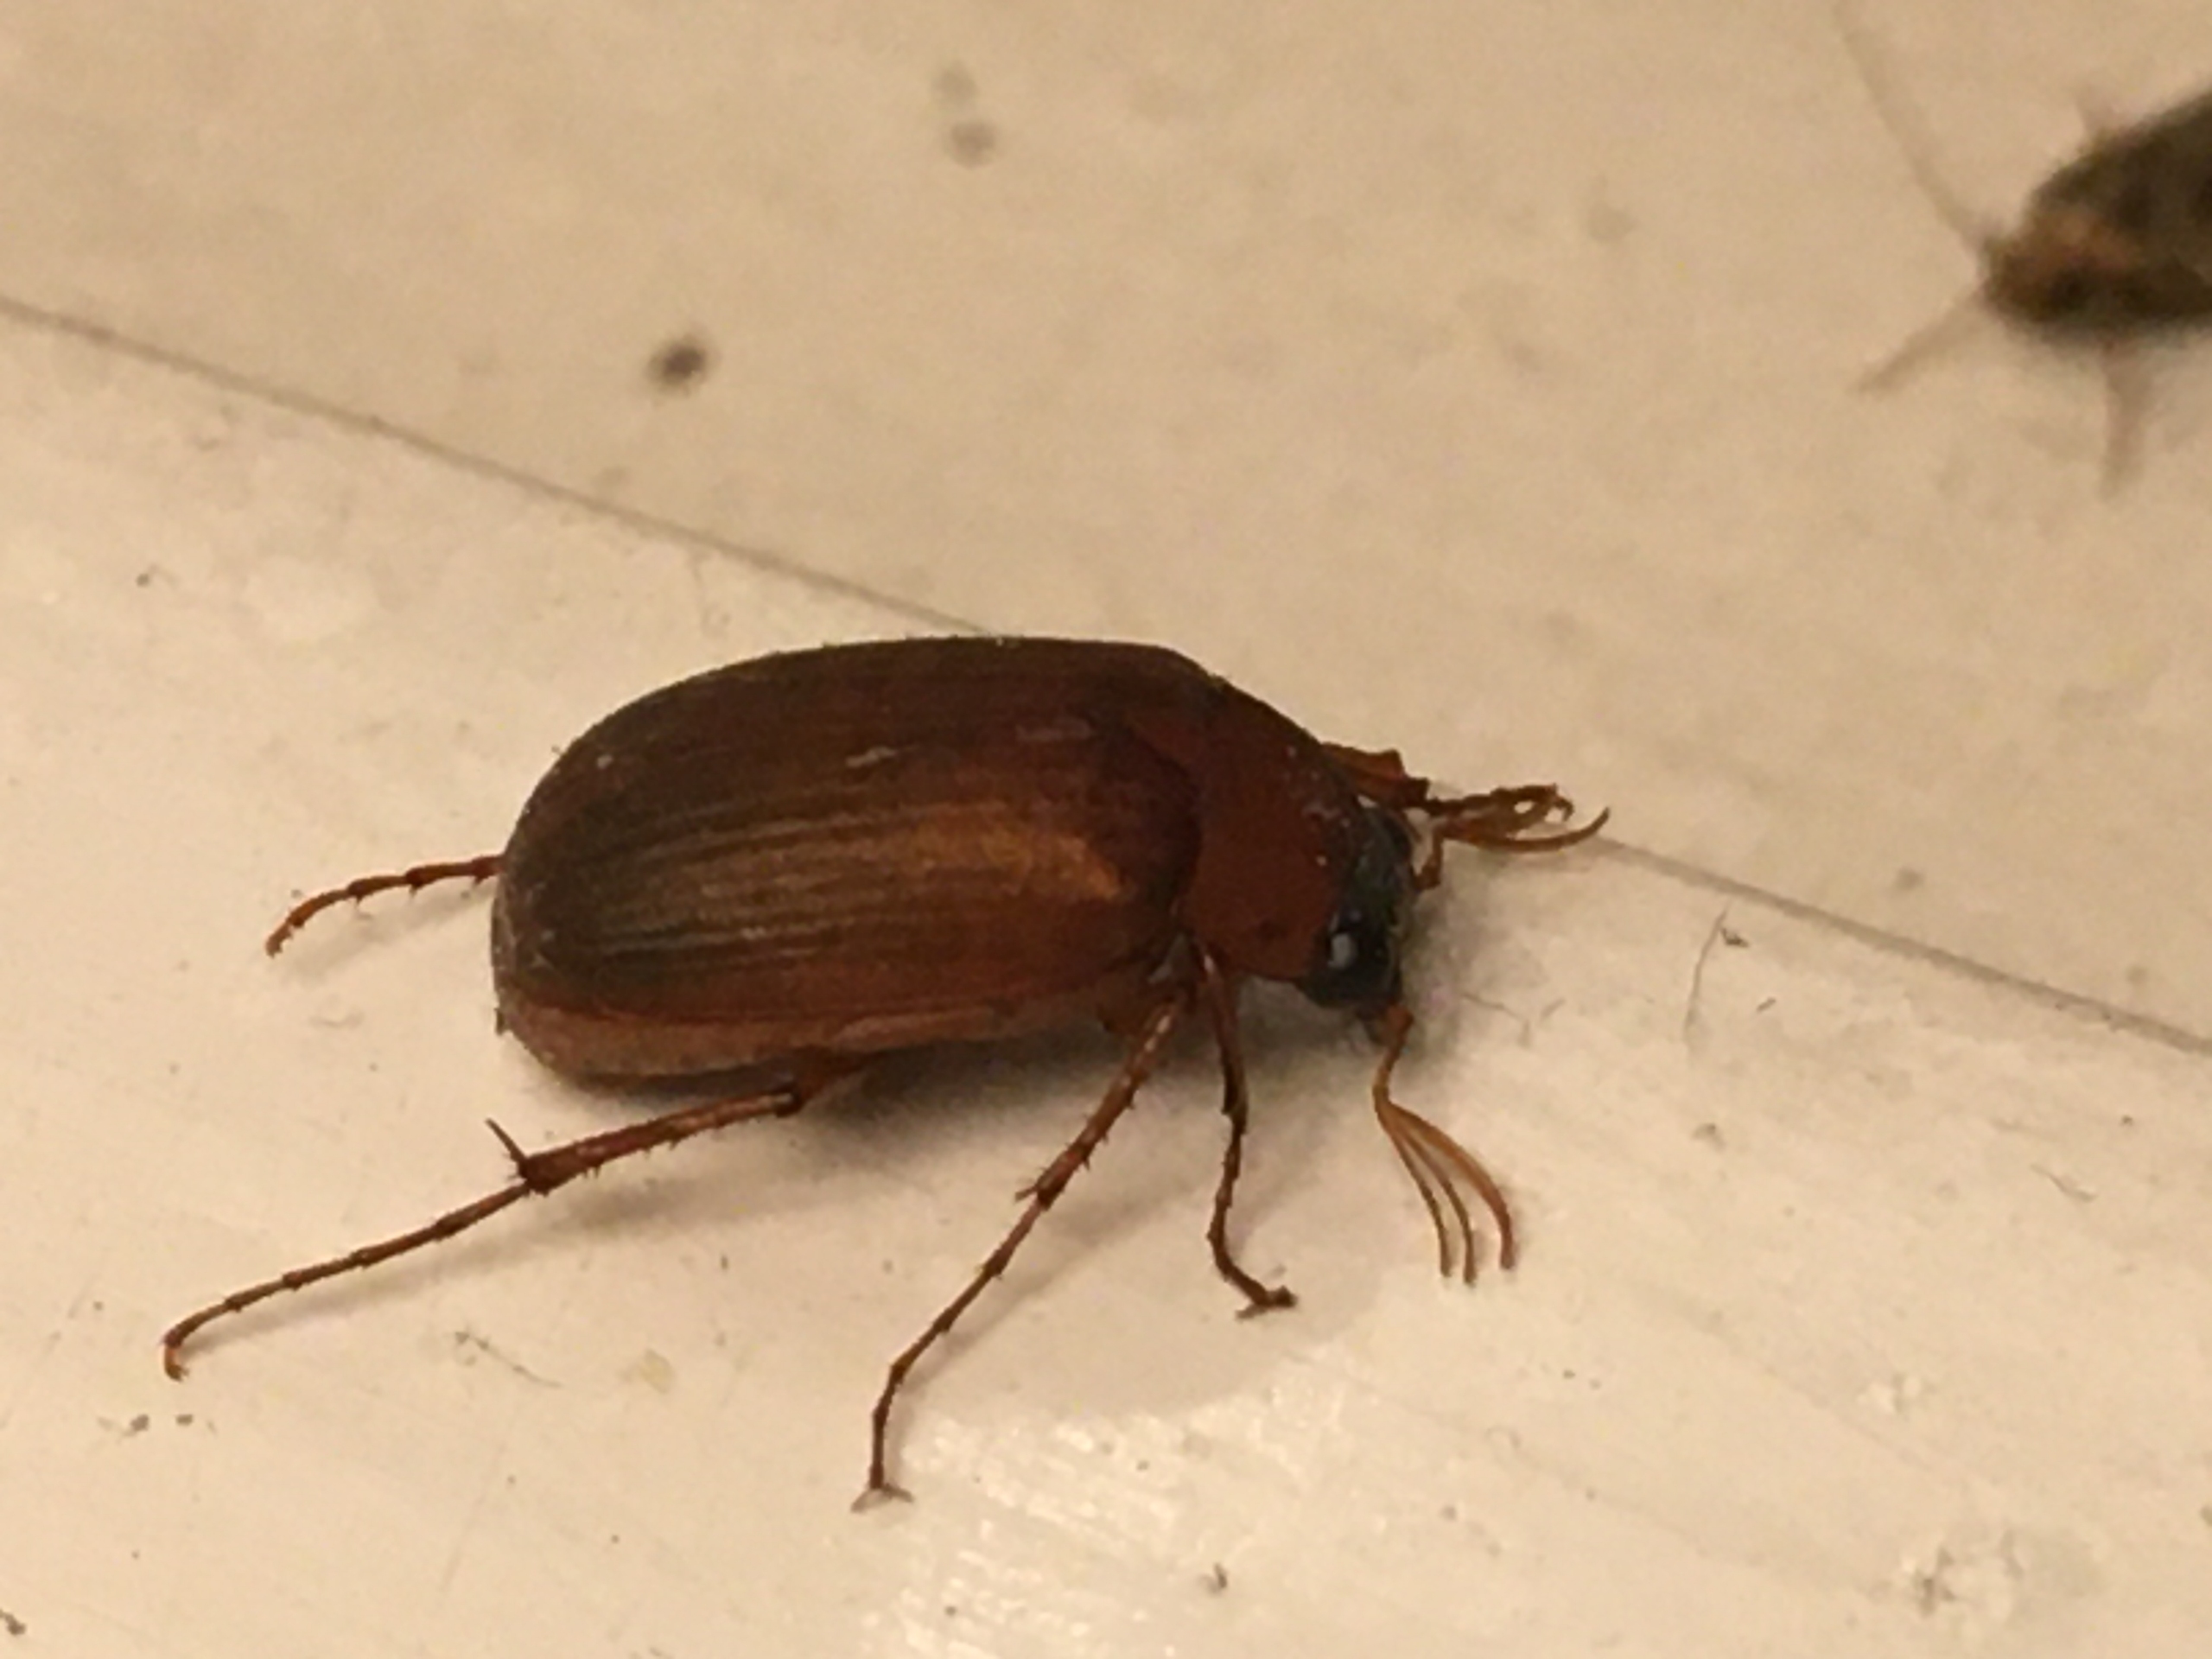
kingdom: Animalia
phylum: Arthropoda
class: Insecta
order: Coleoptera
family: Scarabaeidae
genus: Serica
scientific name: Serica brunnea
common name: Natoldenborre
